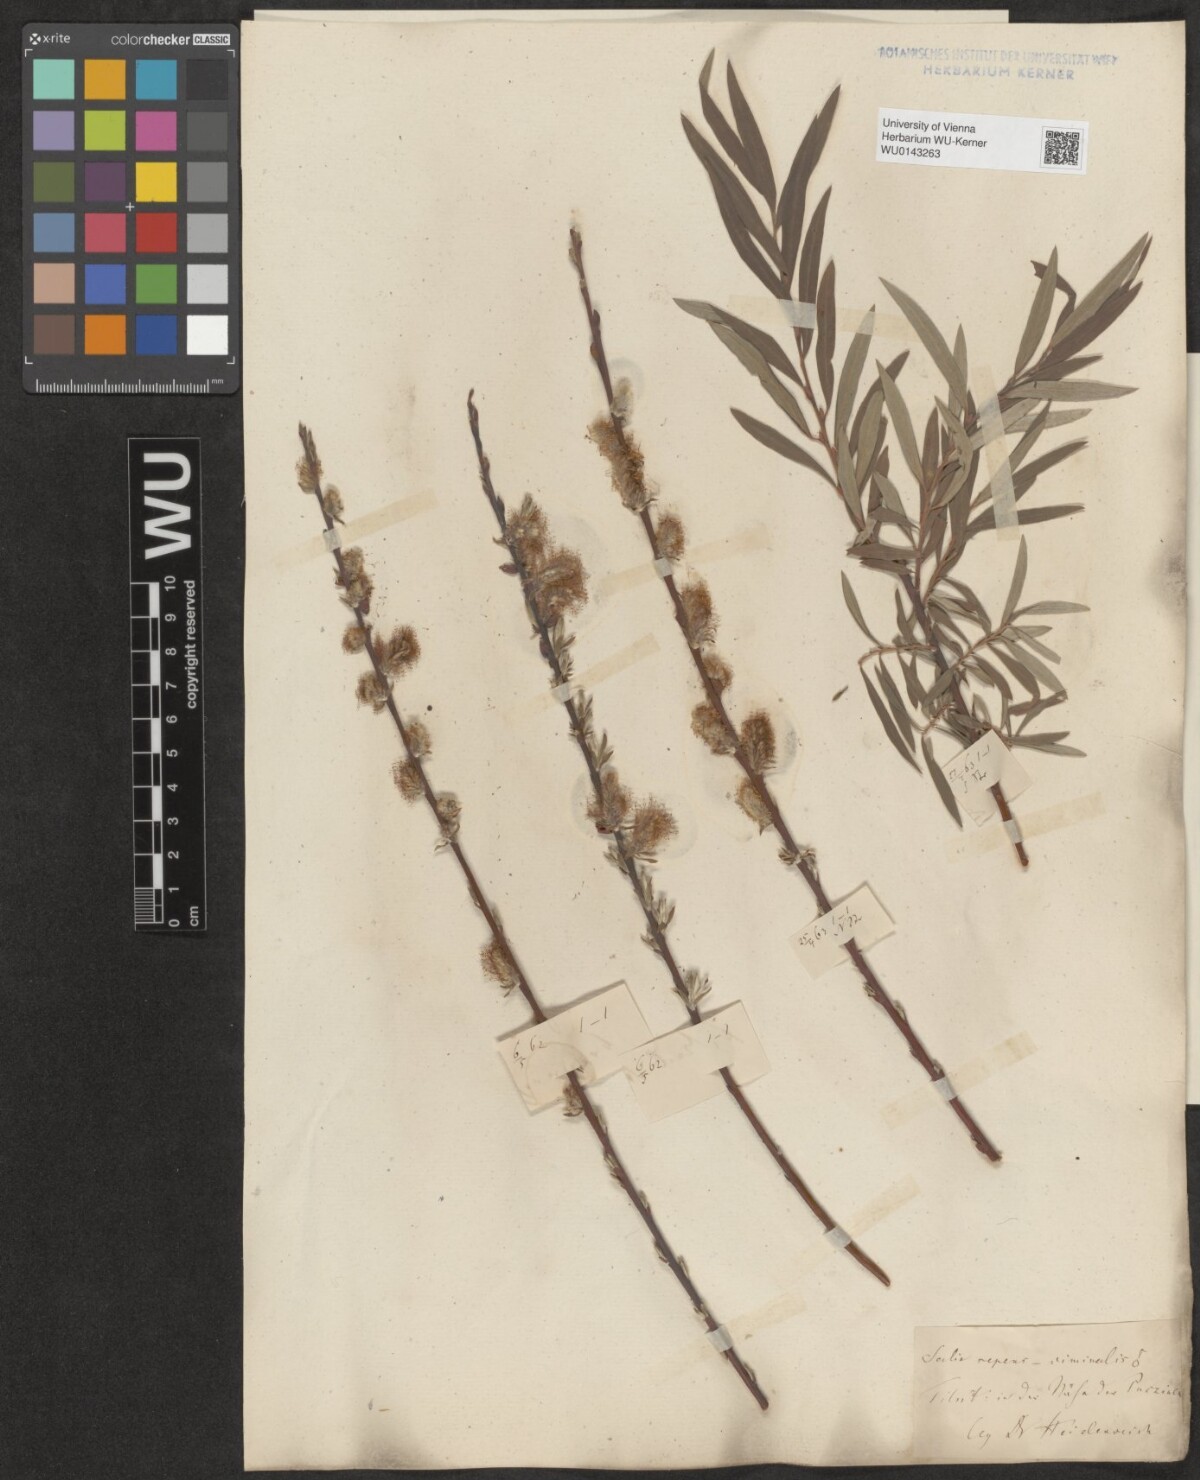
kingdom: Plantae
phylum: Tracheophyta
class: Magnoliopsida
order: Malpighiales
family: Salicaceae
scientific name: Salicaceae
